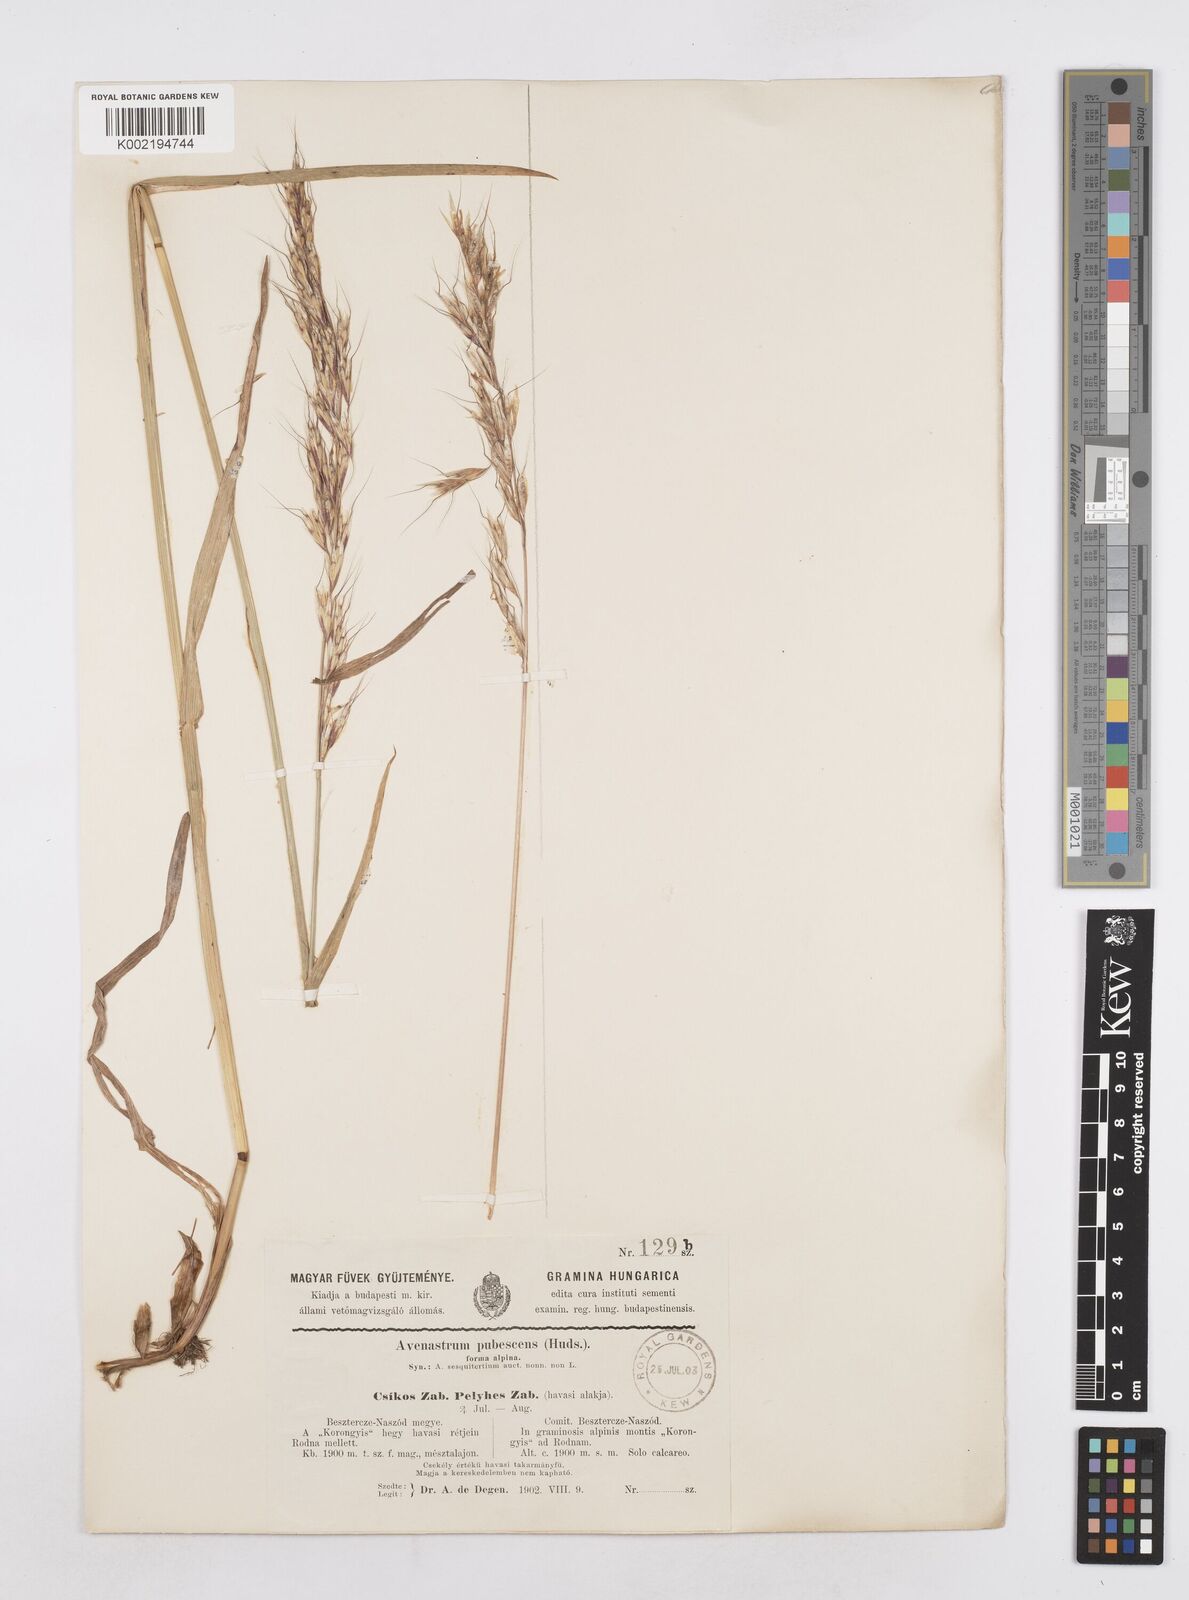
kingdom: Plantae
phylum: Tracheophyta
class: Liliopsida
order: Poales
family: Poaceae
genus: Avenula
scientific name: Avenula pubescens
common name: Downy alpine oatgrass
